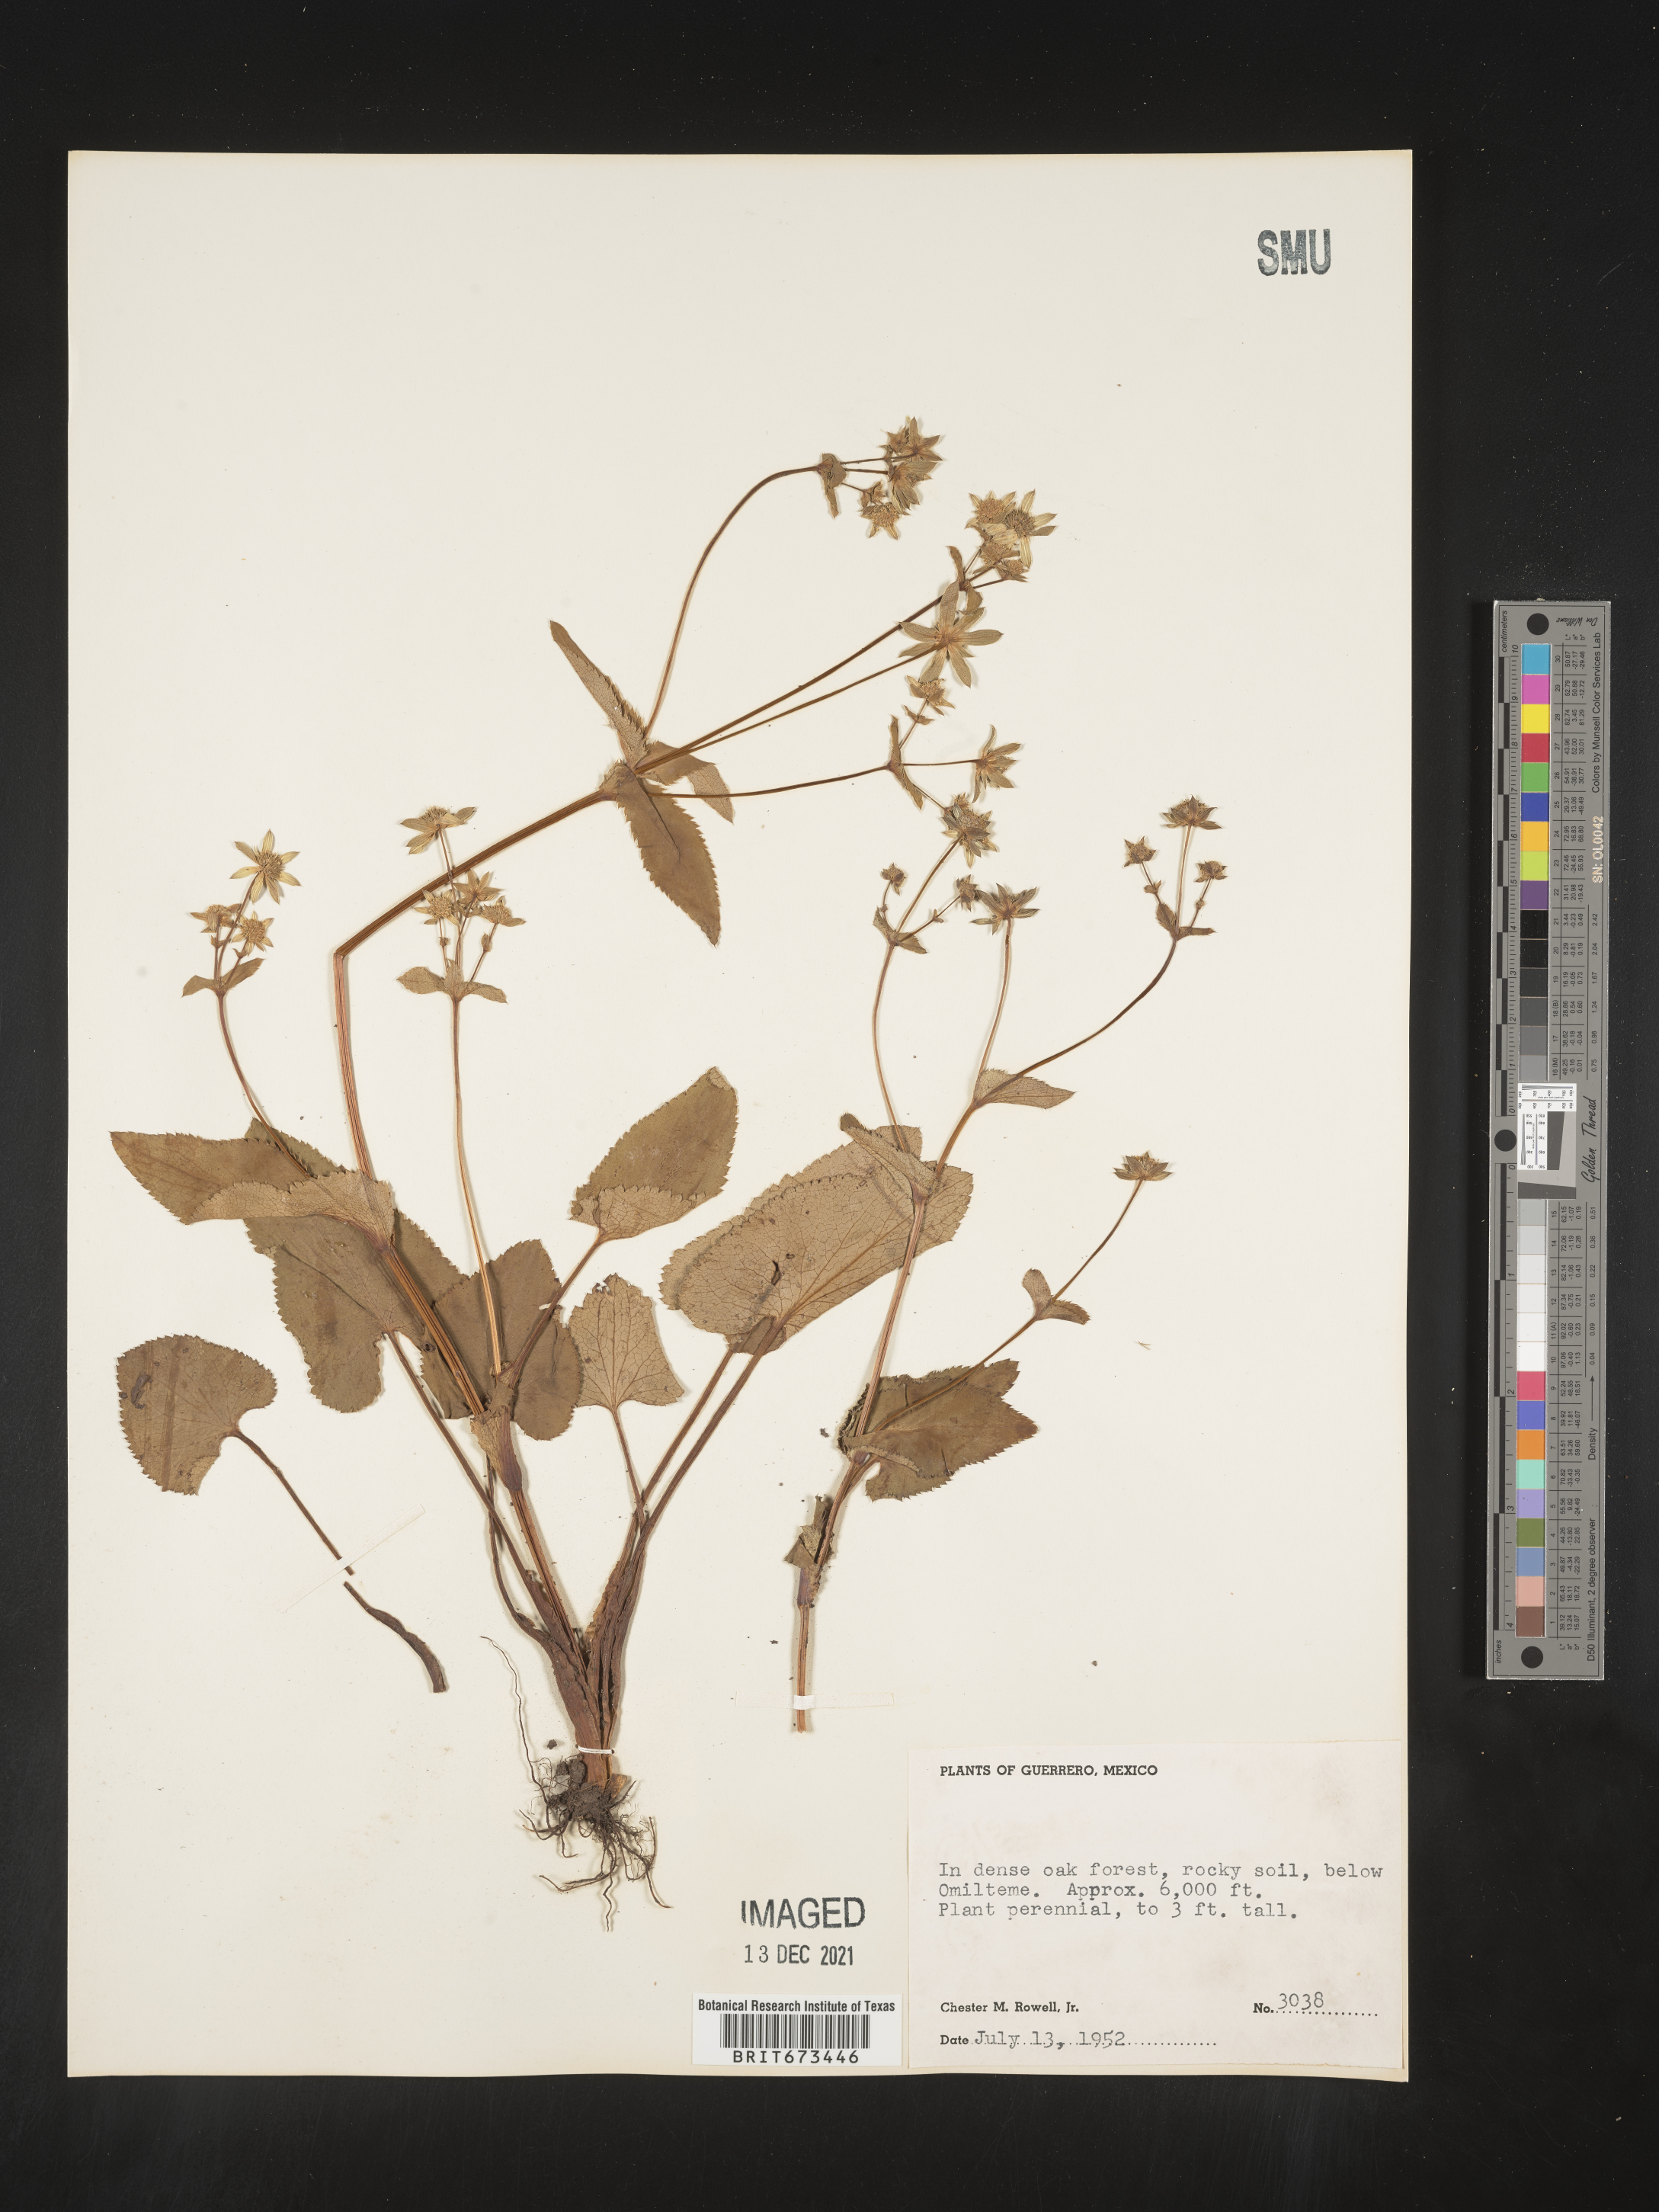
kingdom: Plantae
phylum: Tracheophyta
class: Magnoliopsida
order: Apiales
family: Apiaceae
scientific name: Apiaceae
